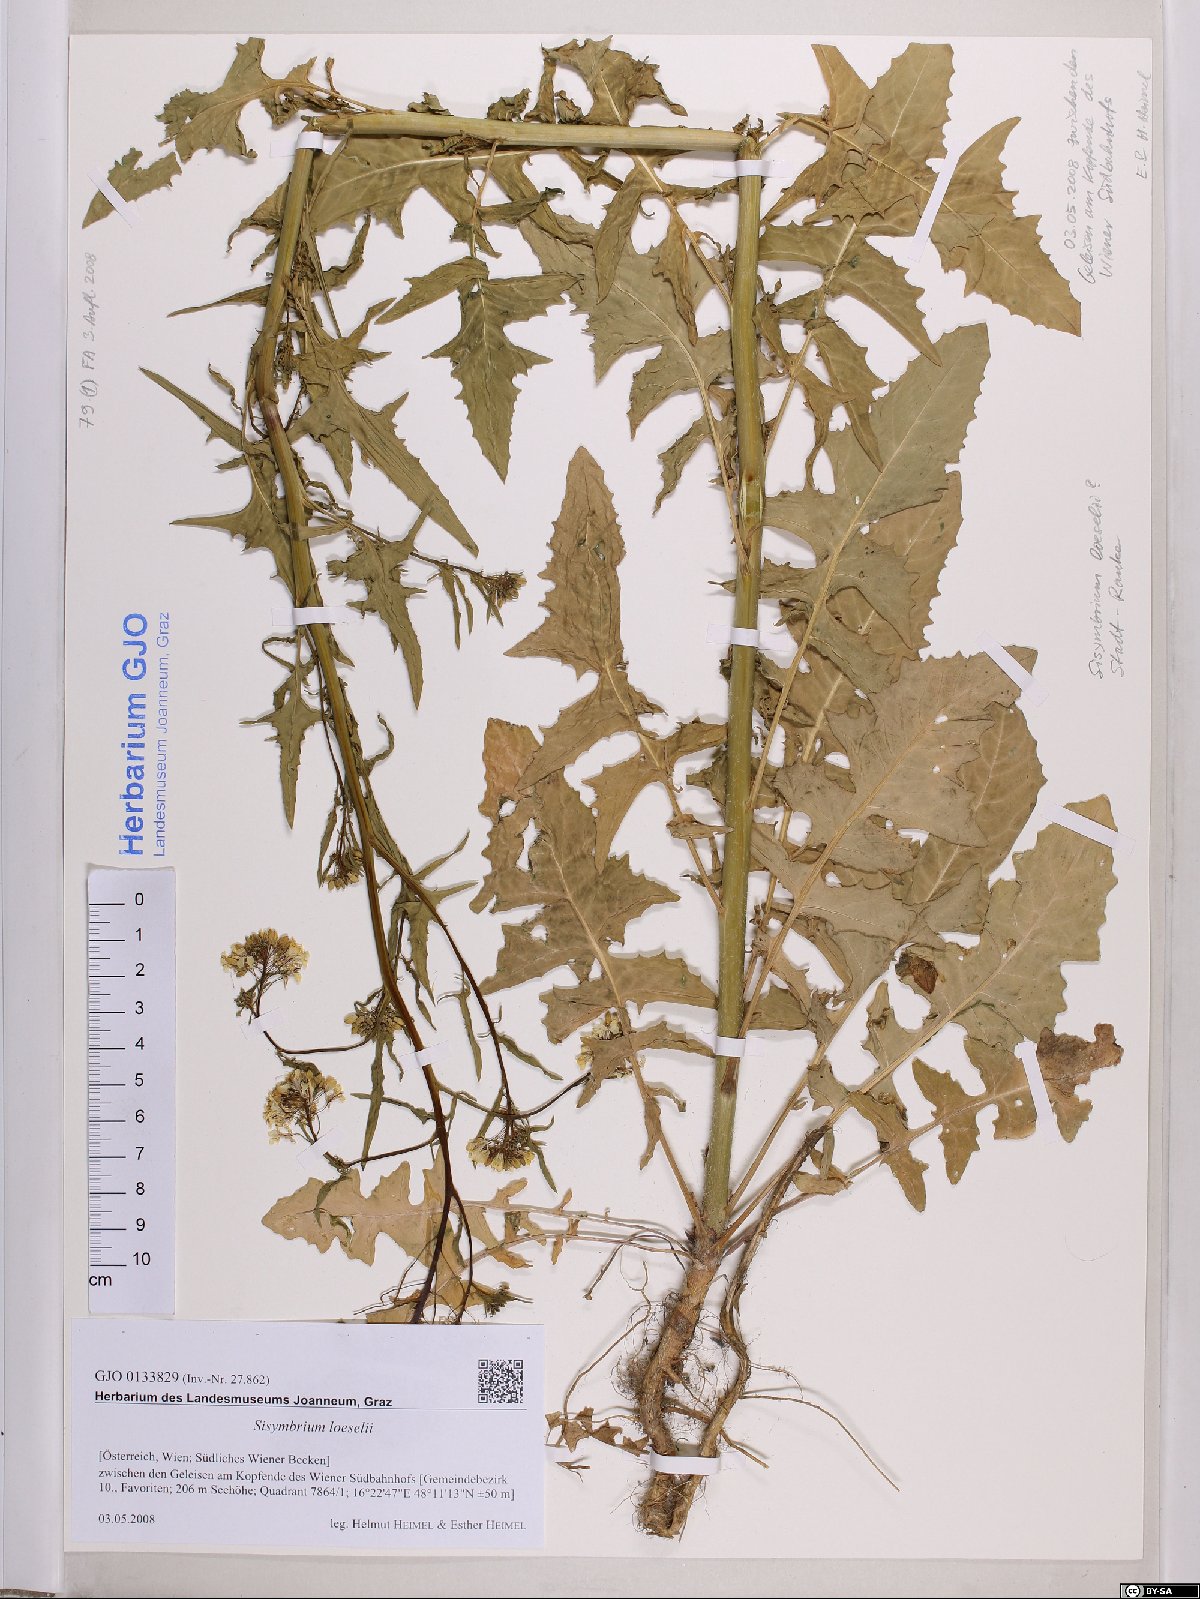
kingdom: Plantae
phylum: Tracheophyta
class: Magnoliopsida
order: Brassicales
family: Brassicaceae
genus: Sisymbrium
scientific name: Sisymbrium loeselii
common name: False london-rocket
